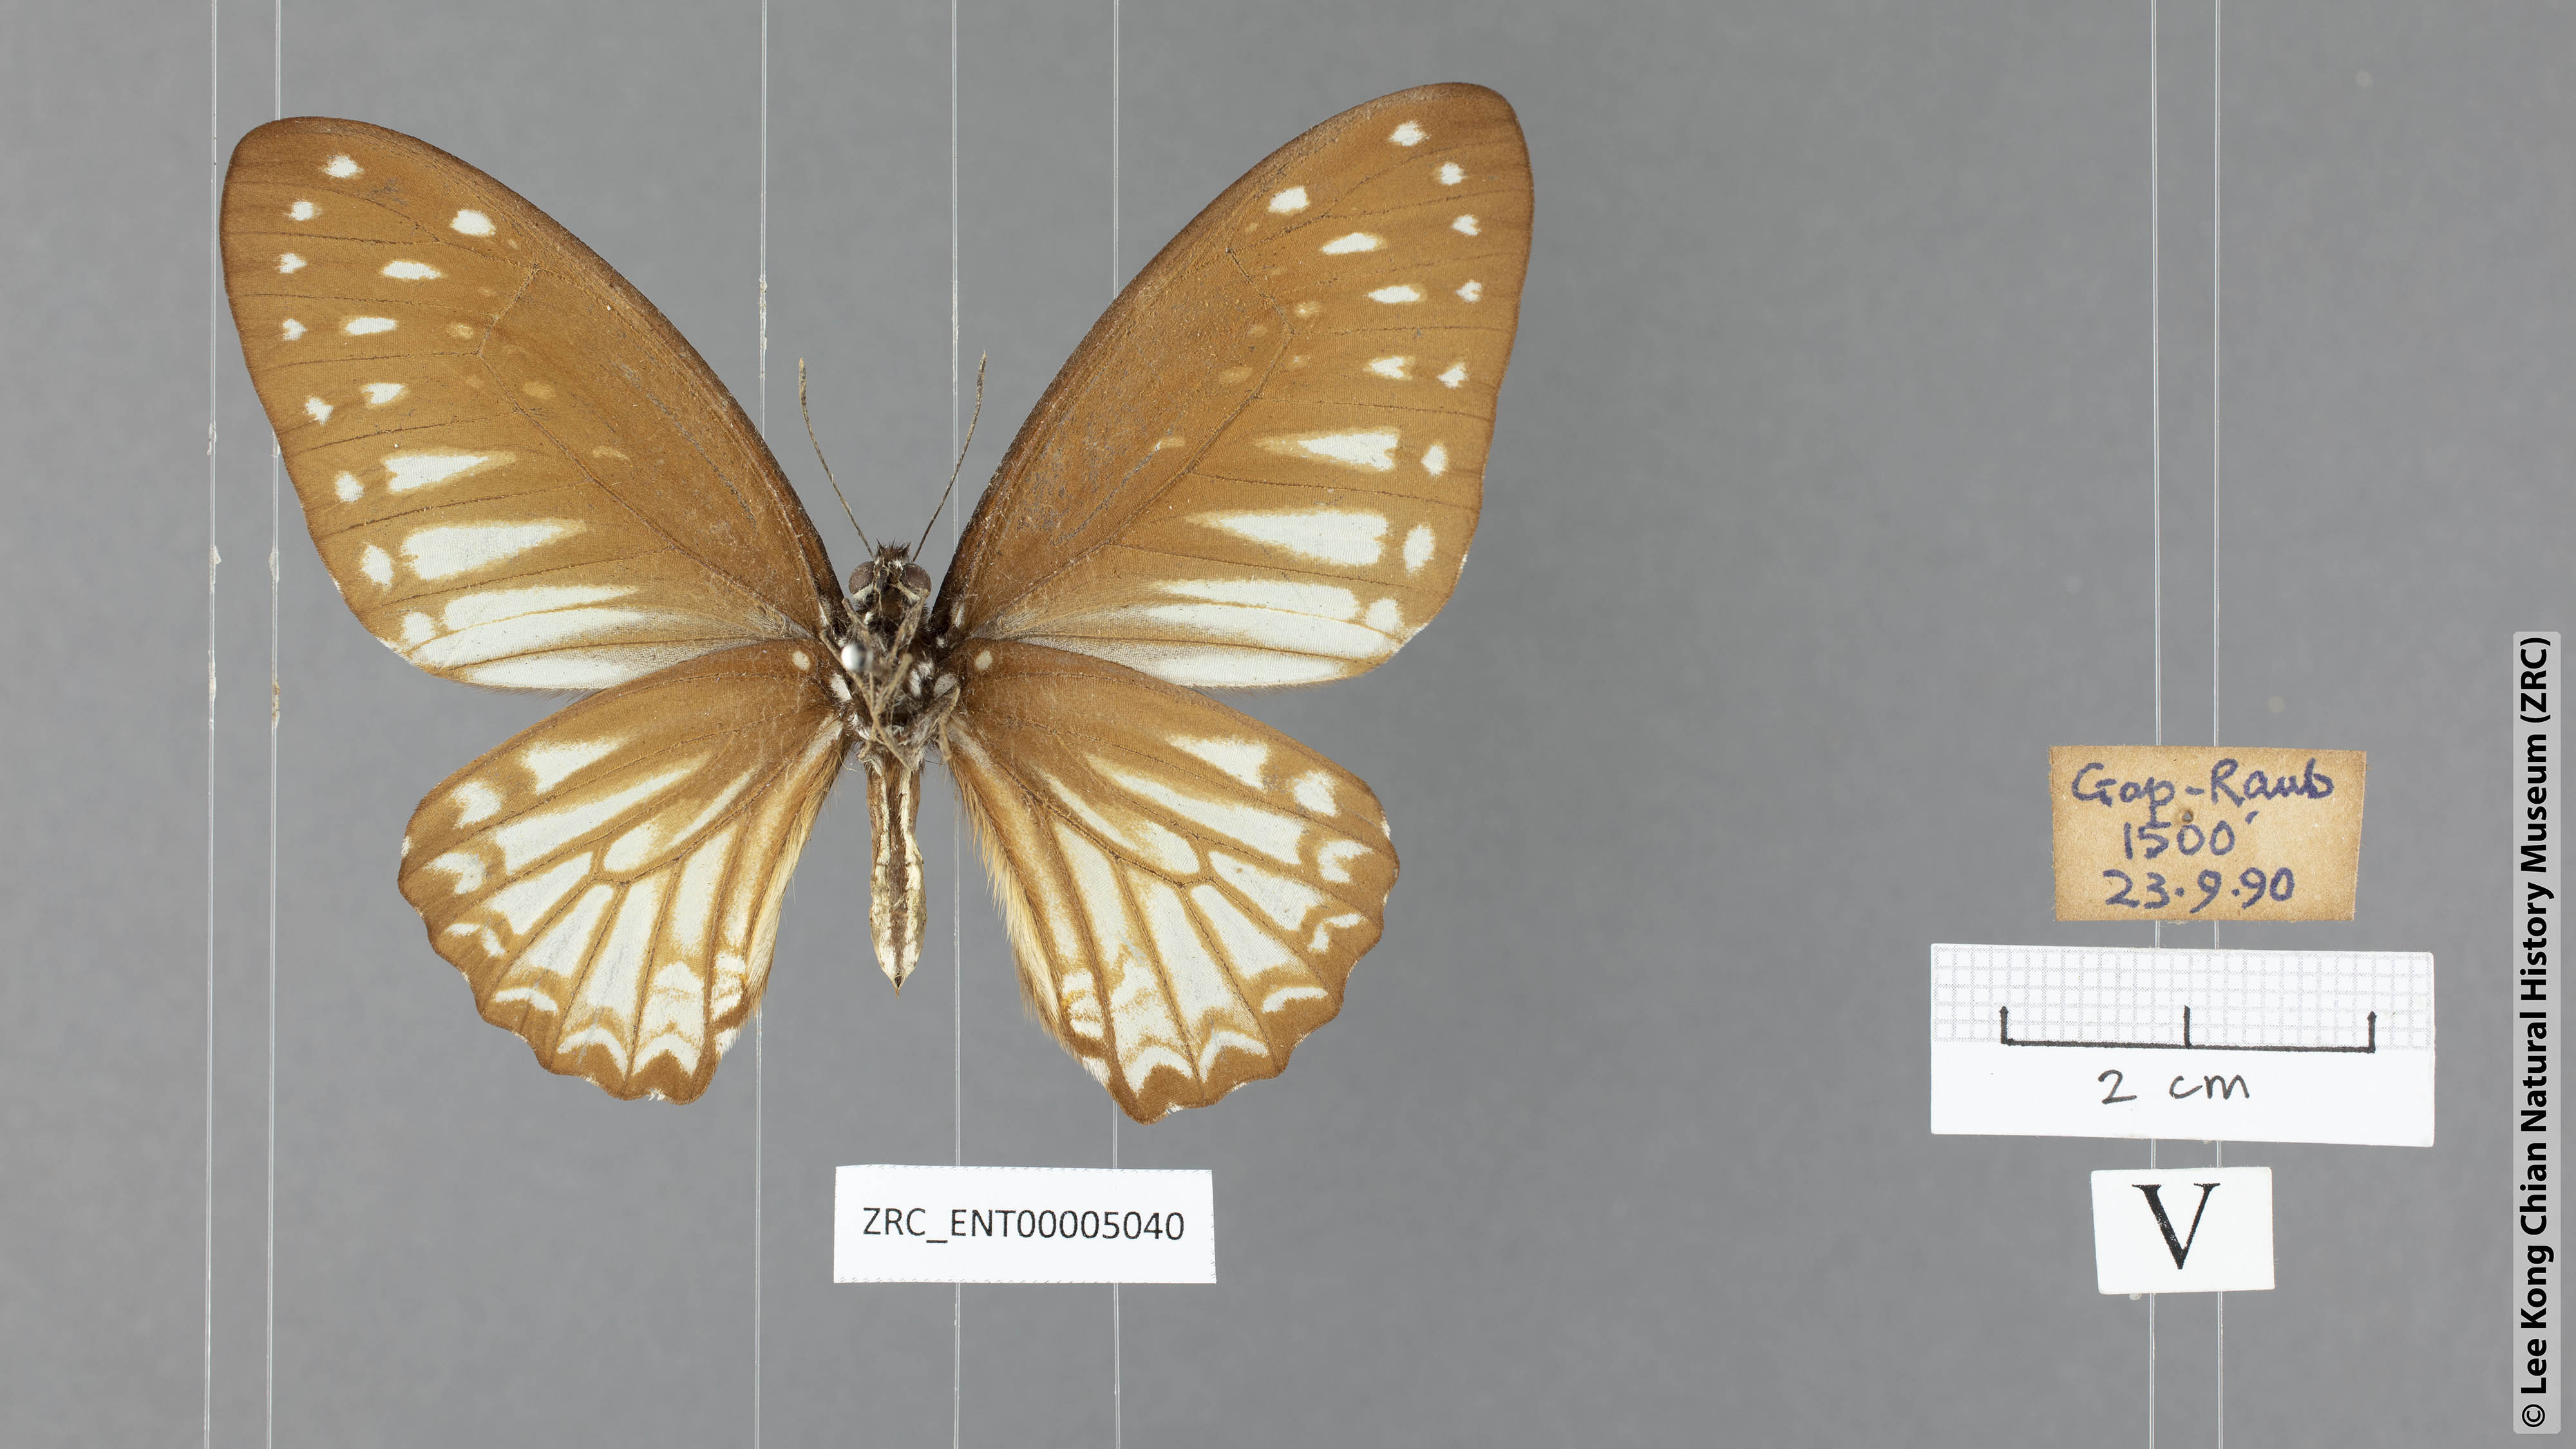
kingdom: Animalia
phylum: Arthropoda
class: Insecta
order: Lepidoptera
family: Papilionidae
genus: Graphium
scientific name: Graphium ramaceus
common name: Pendlebury's zebra
